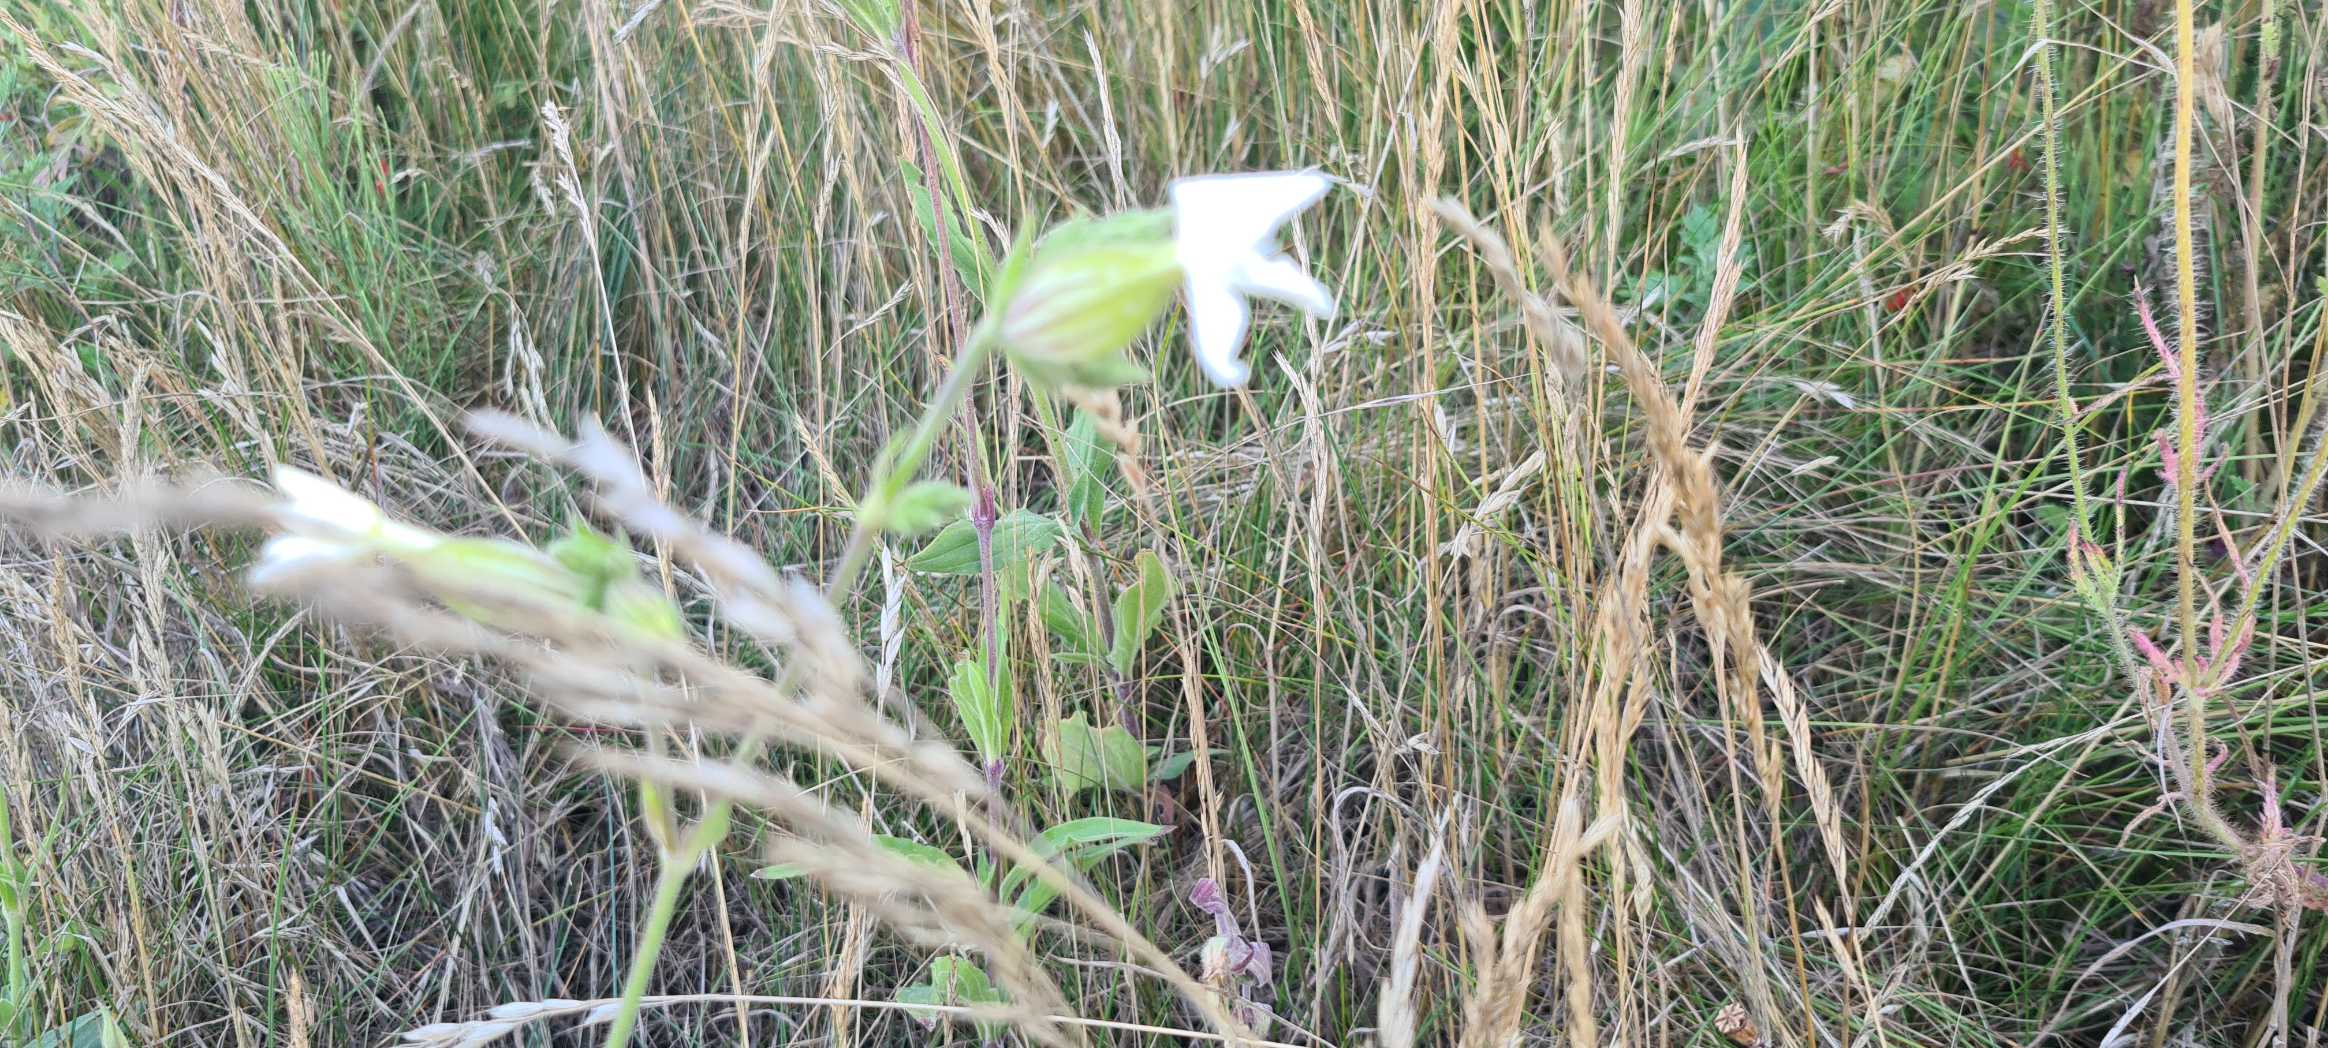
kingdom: Plantae
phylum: Tracheophyta
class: Magnoliopsida
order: Caryophyllales
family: Caryophyllaceae
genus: Silene
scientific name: Silene latifolia
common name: Aftenpragtstjerne
